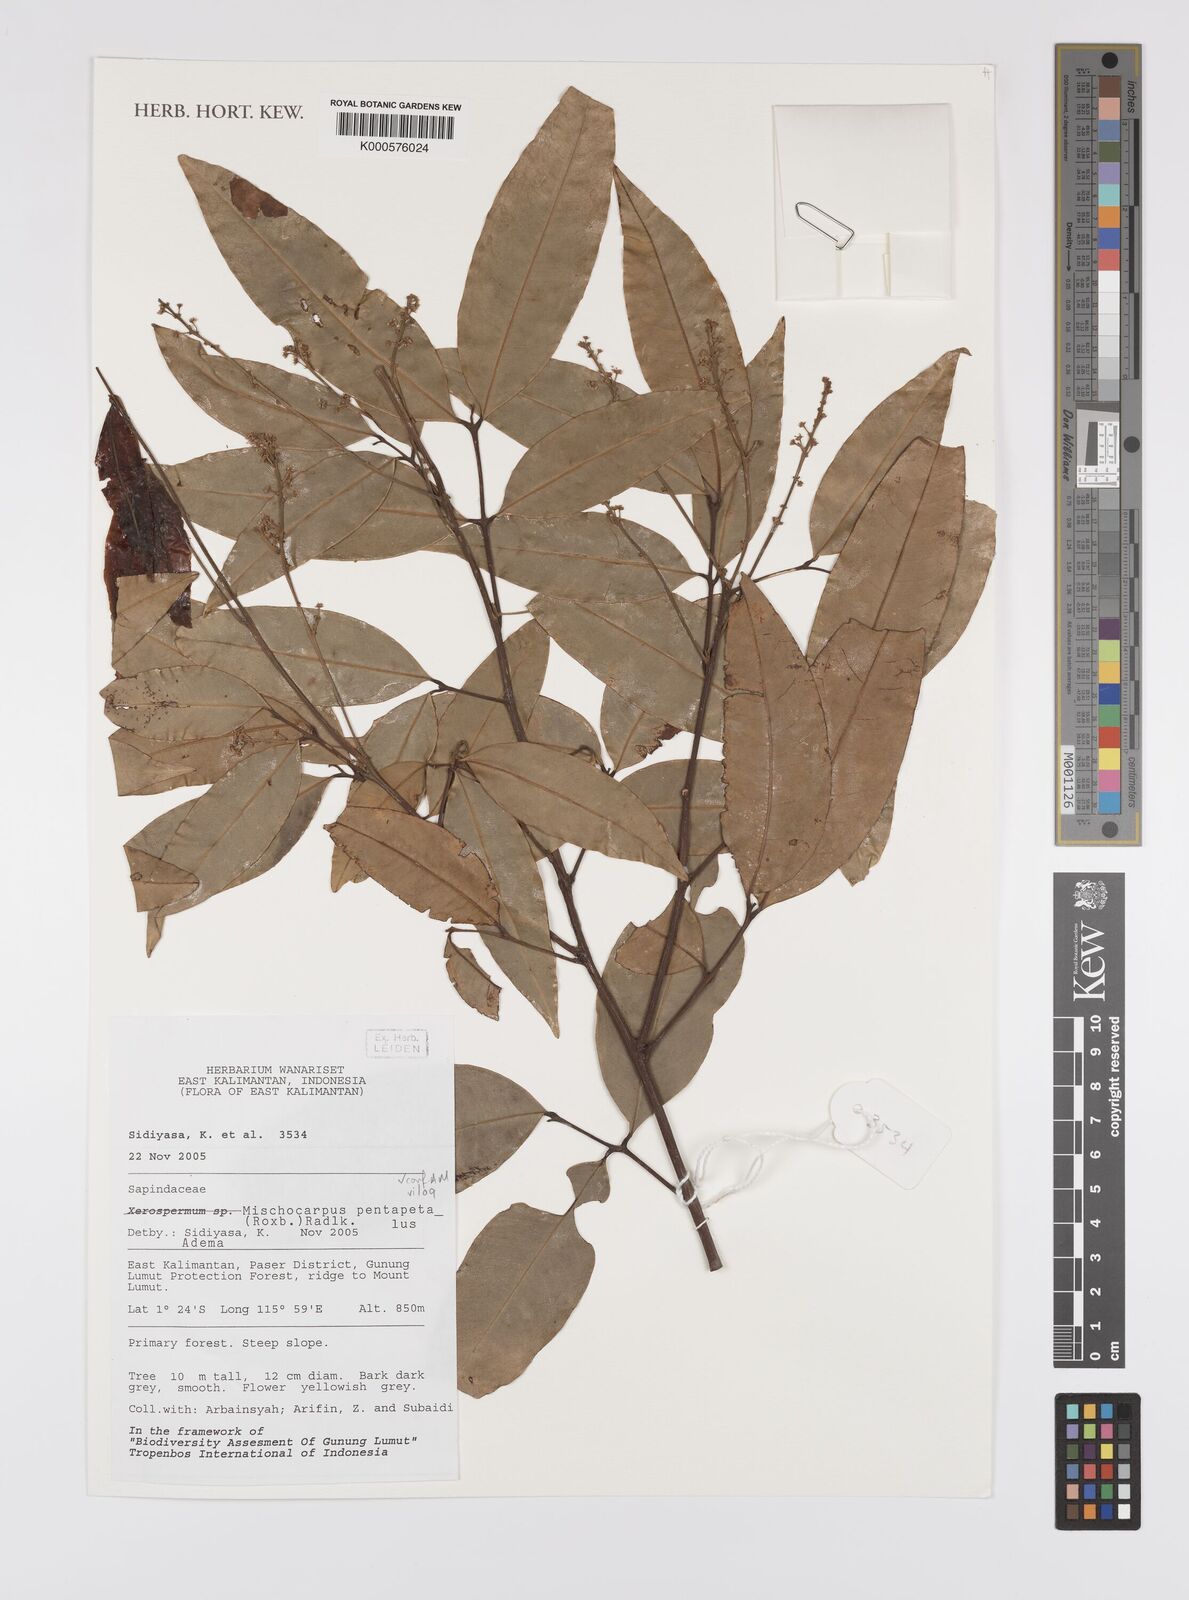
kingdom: Plantae
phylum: Tracheophyta
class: Magnoliopsida
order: Sapindales
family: Sapindaceae
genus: Mischocarpus
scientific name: Mischocarpus pentapetalus
